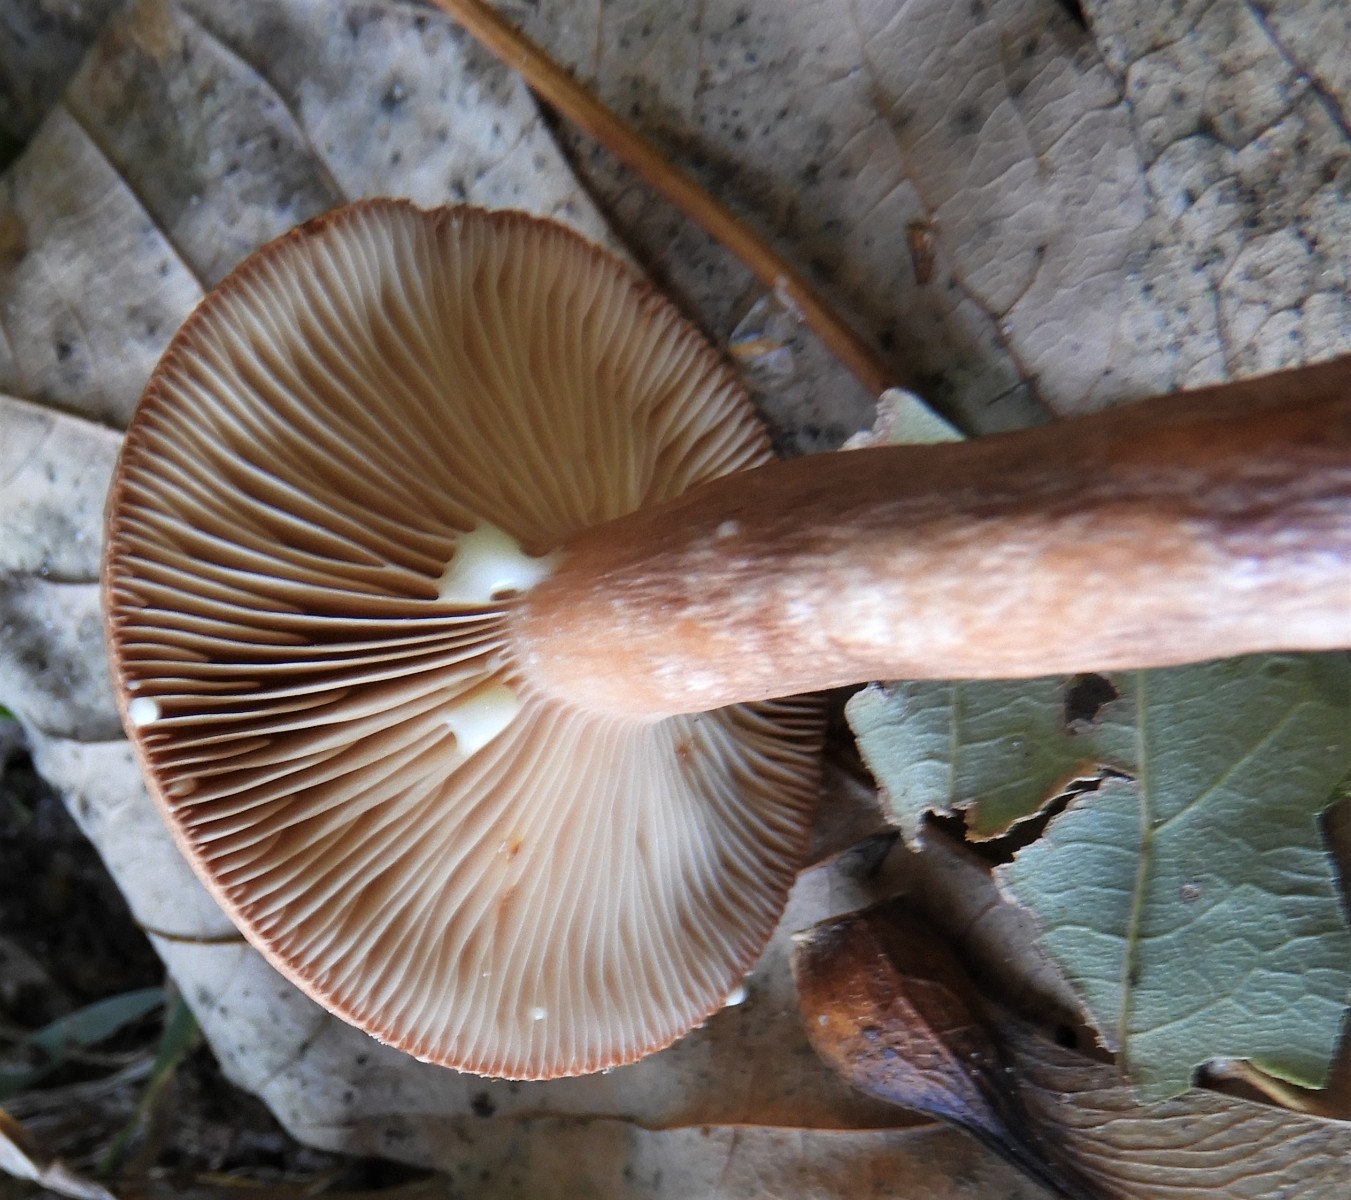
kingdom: Fungi
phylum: Basidiomycota
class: Agaricomycetes
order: Russulales
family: Russulaceae
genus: Lactarius
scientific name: Lactarius quietus
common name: ege-mælkehat
